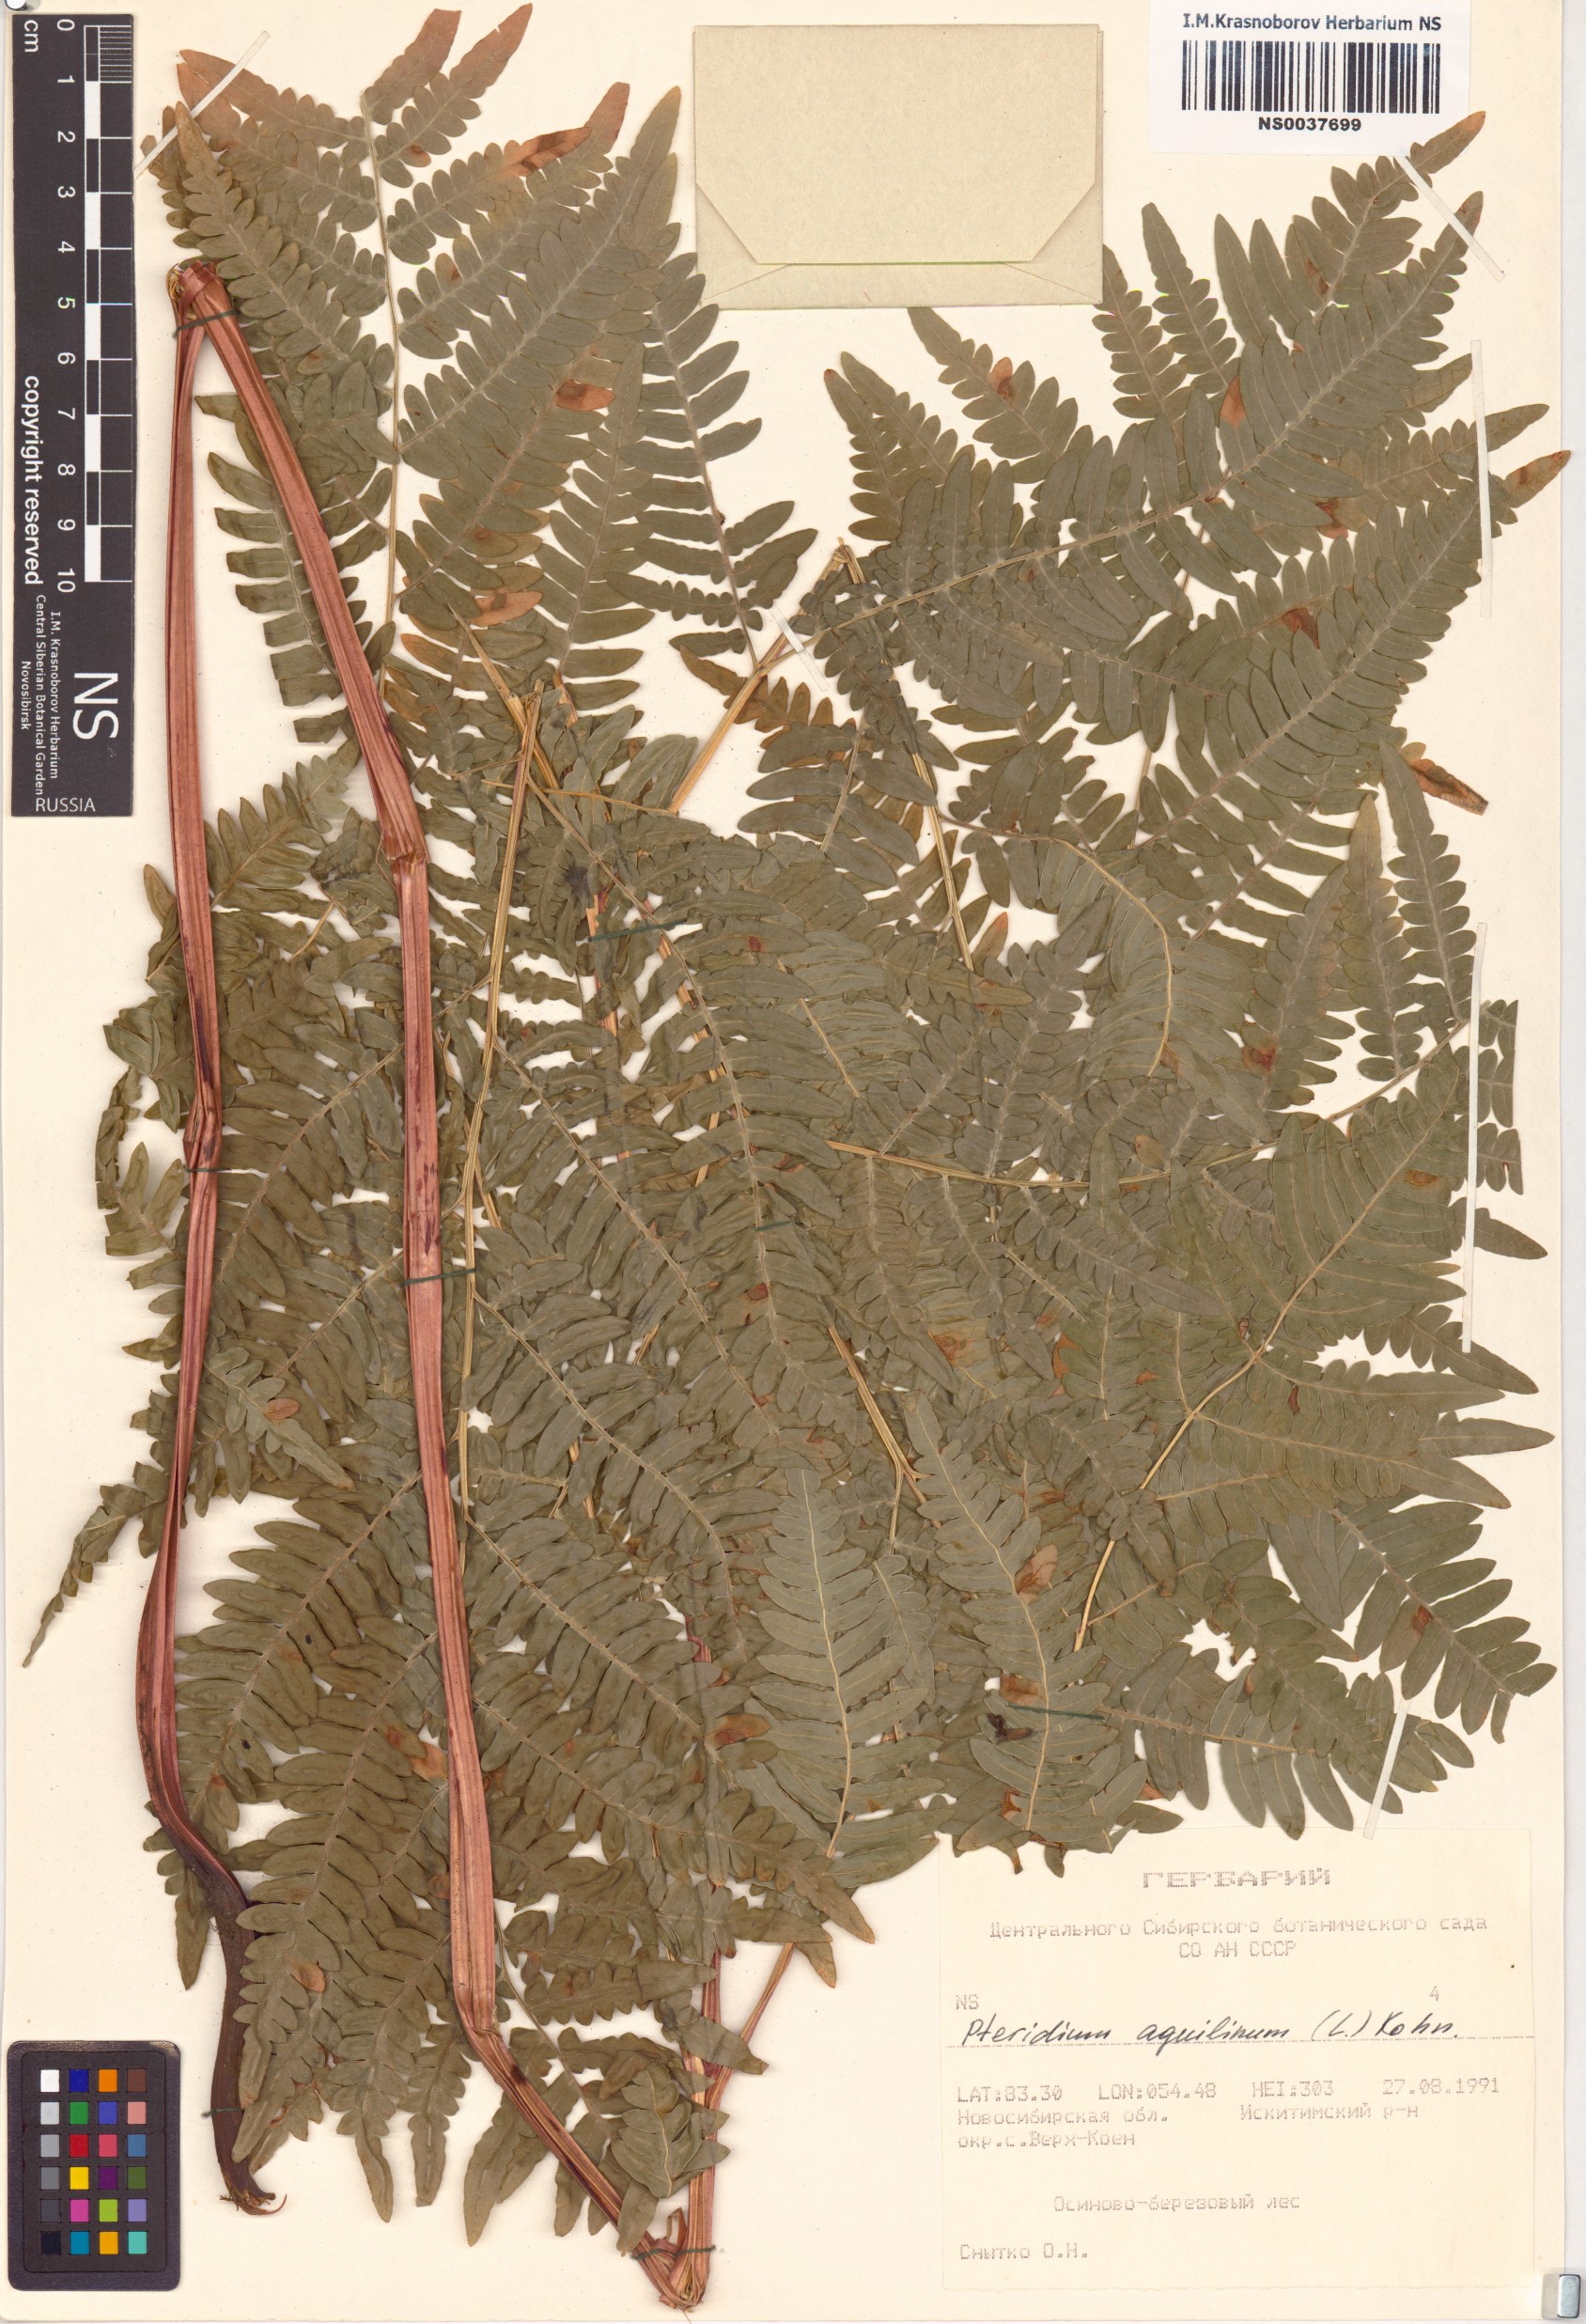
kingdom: Plantae
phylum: Tracheophyta
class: Polypodiopsida
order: Polypodiales
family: Dennstaedtiaceae
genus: Pteridium
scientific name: Pteridium aquilinum
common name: Bracken
